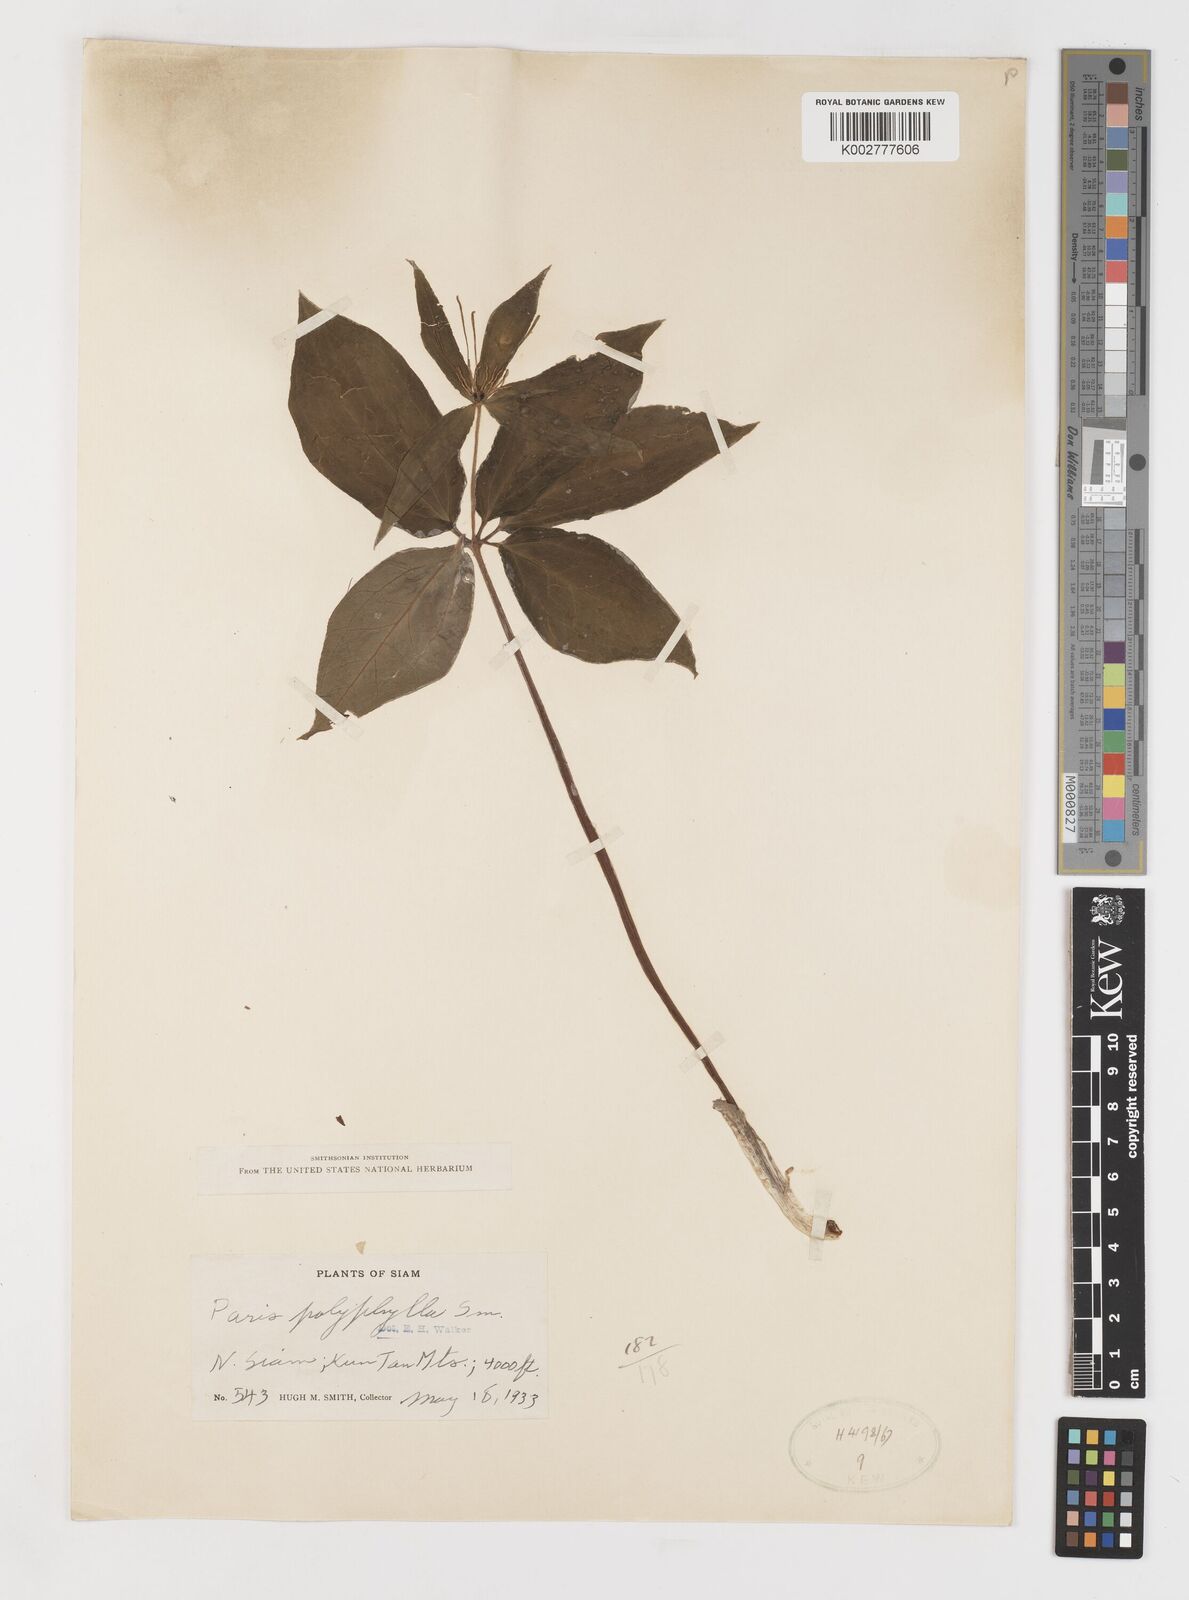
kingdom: Plantae
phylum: Tracheophyta
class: Liliopsida
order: Liliales
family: Melanthiaceae
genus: Paris
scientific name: Paris polyphylla
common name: Love apple
